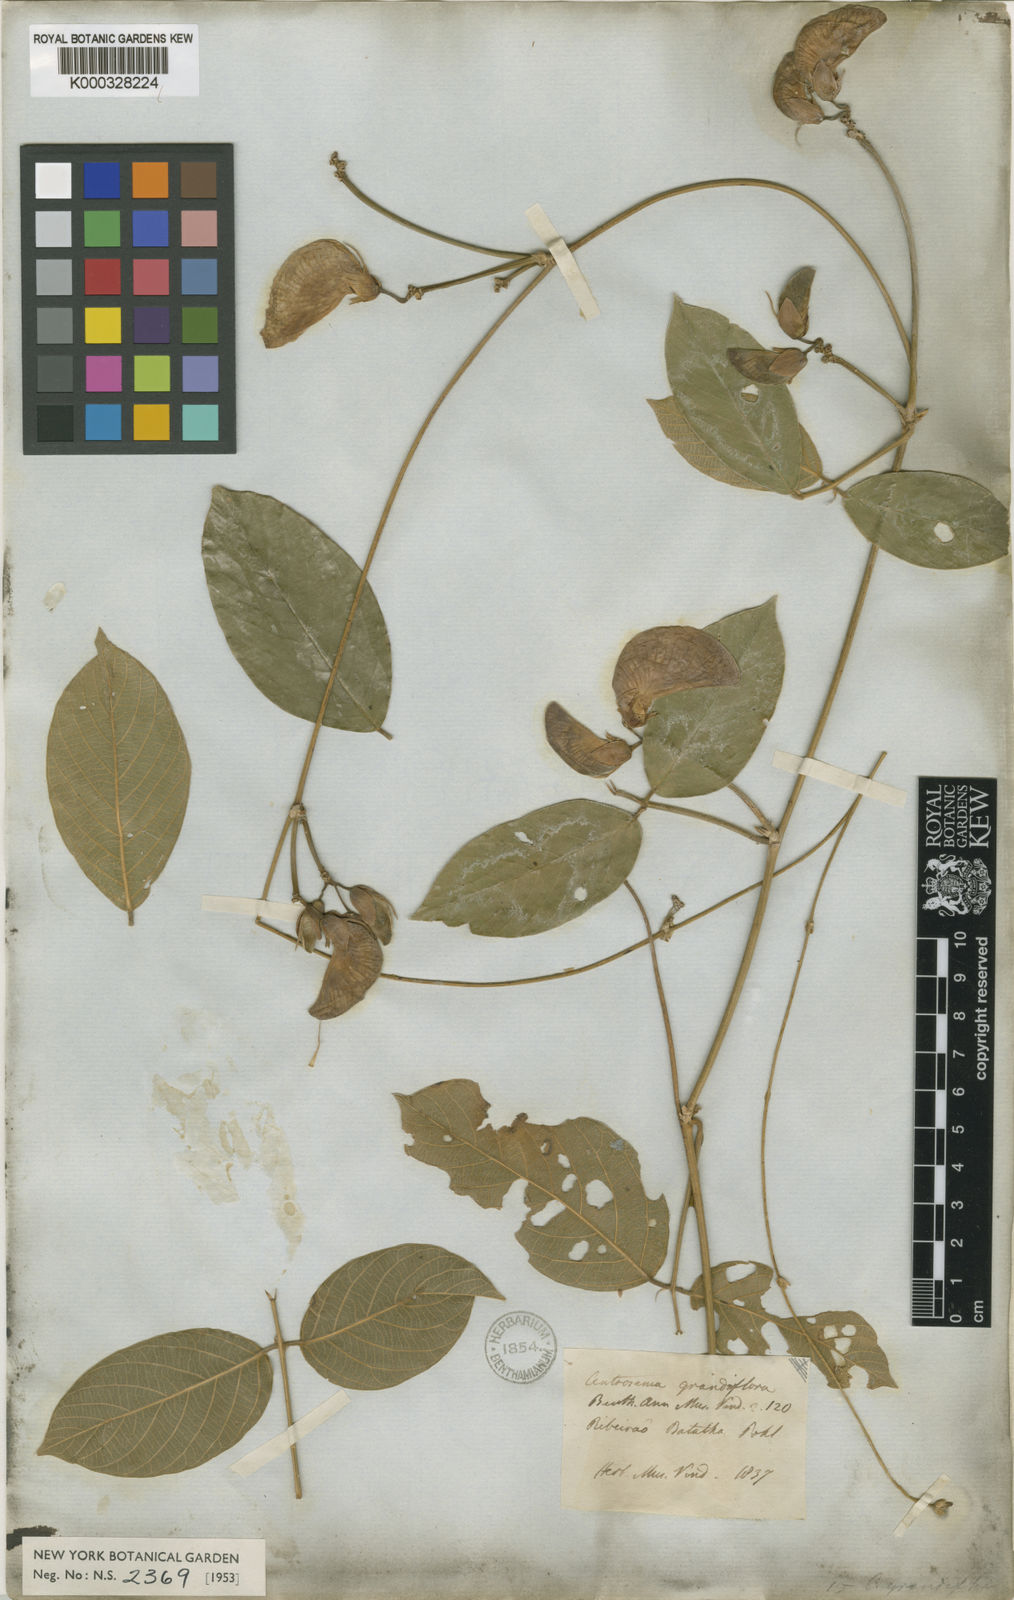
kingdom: Plantae
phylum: Tracheophyta
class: Magnoliopsida
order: Fabales
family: Fabaceae
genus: Centrosema
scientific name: Centrosema grandiflorum
